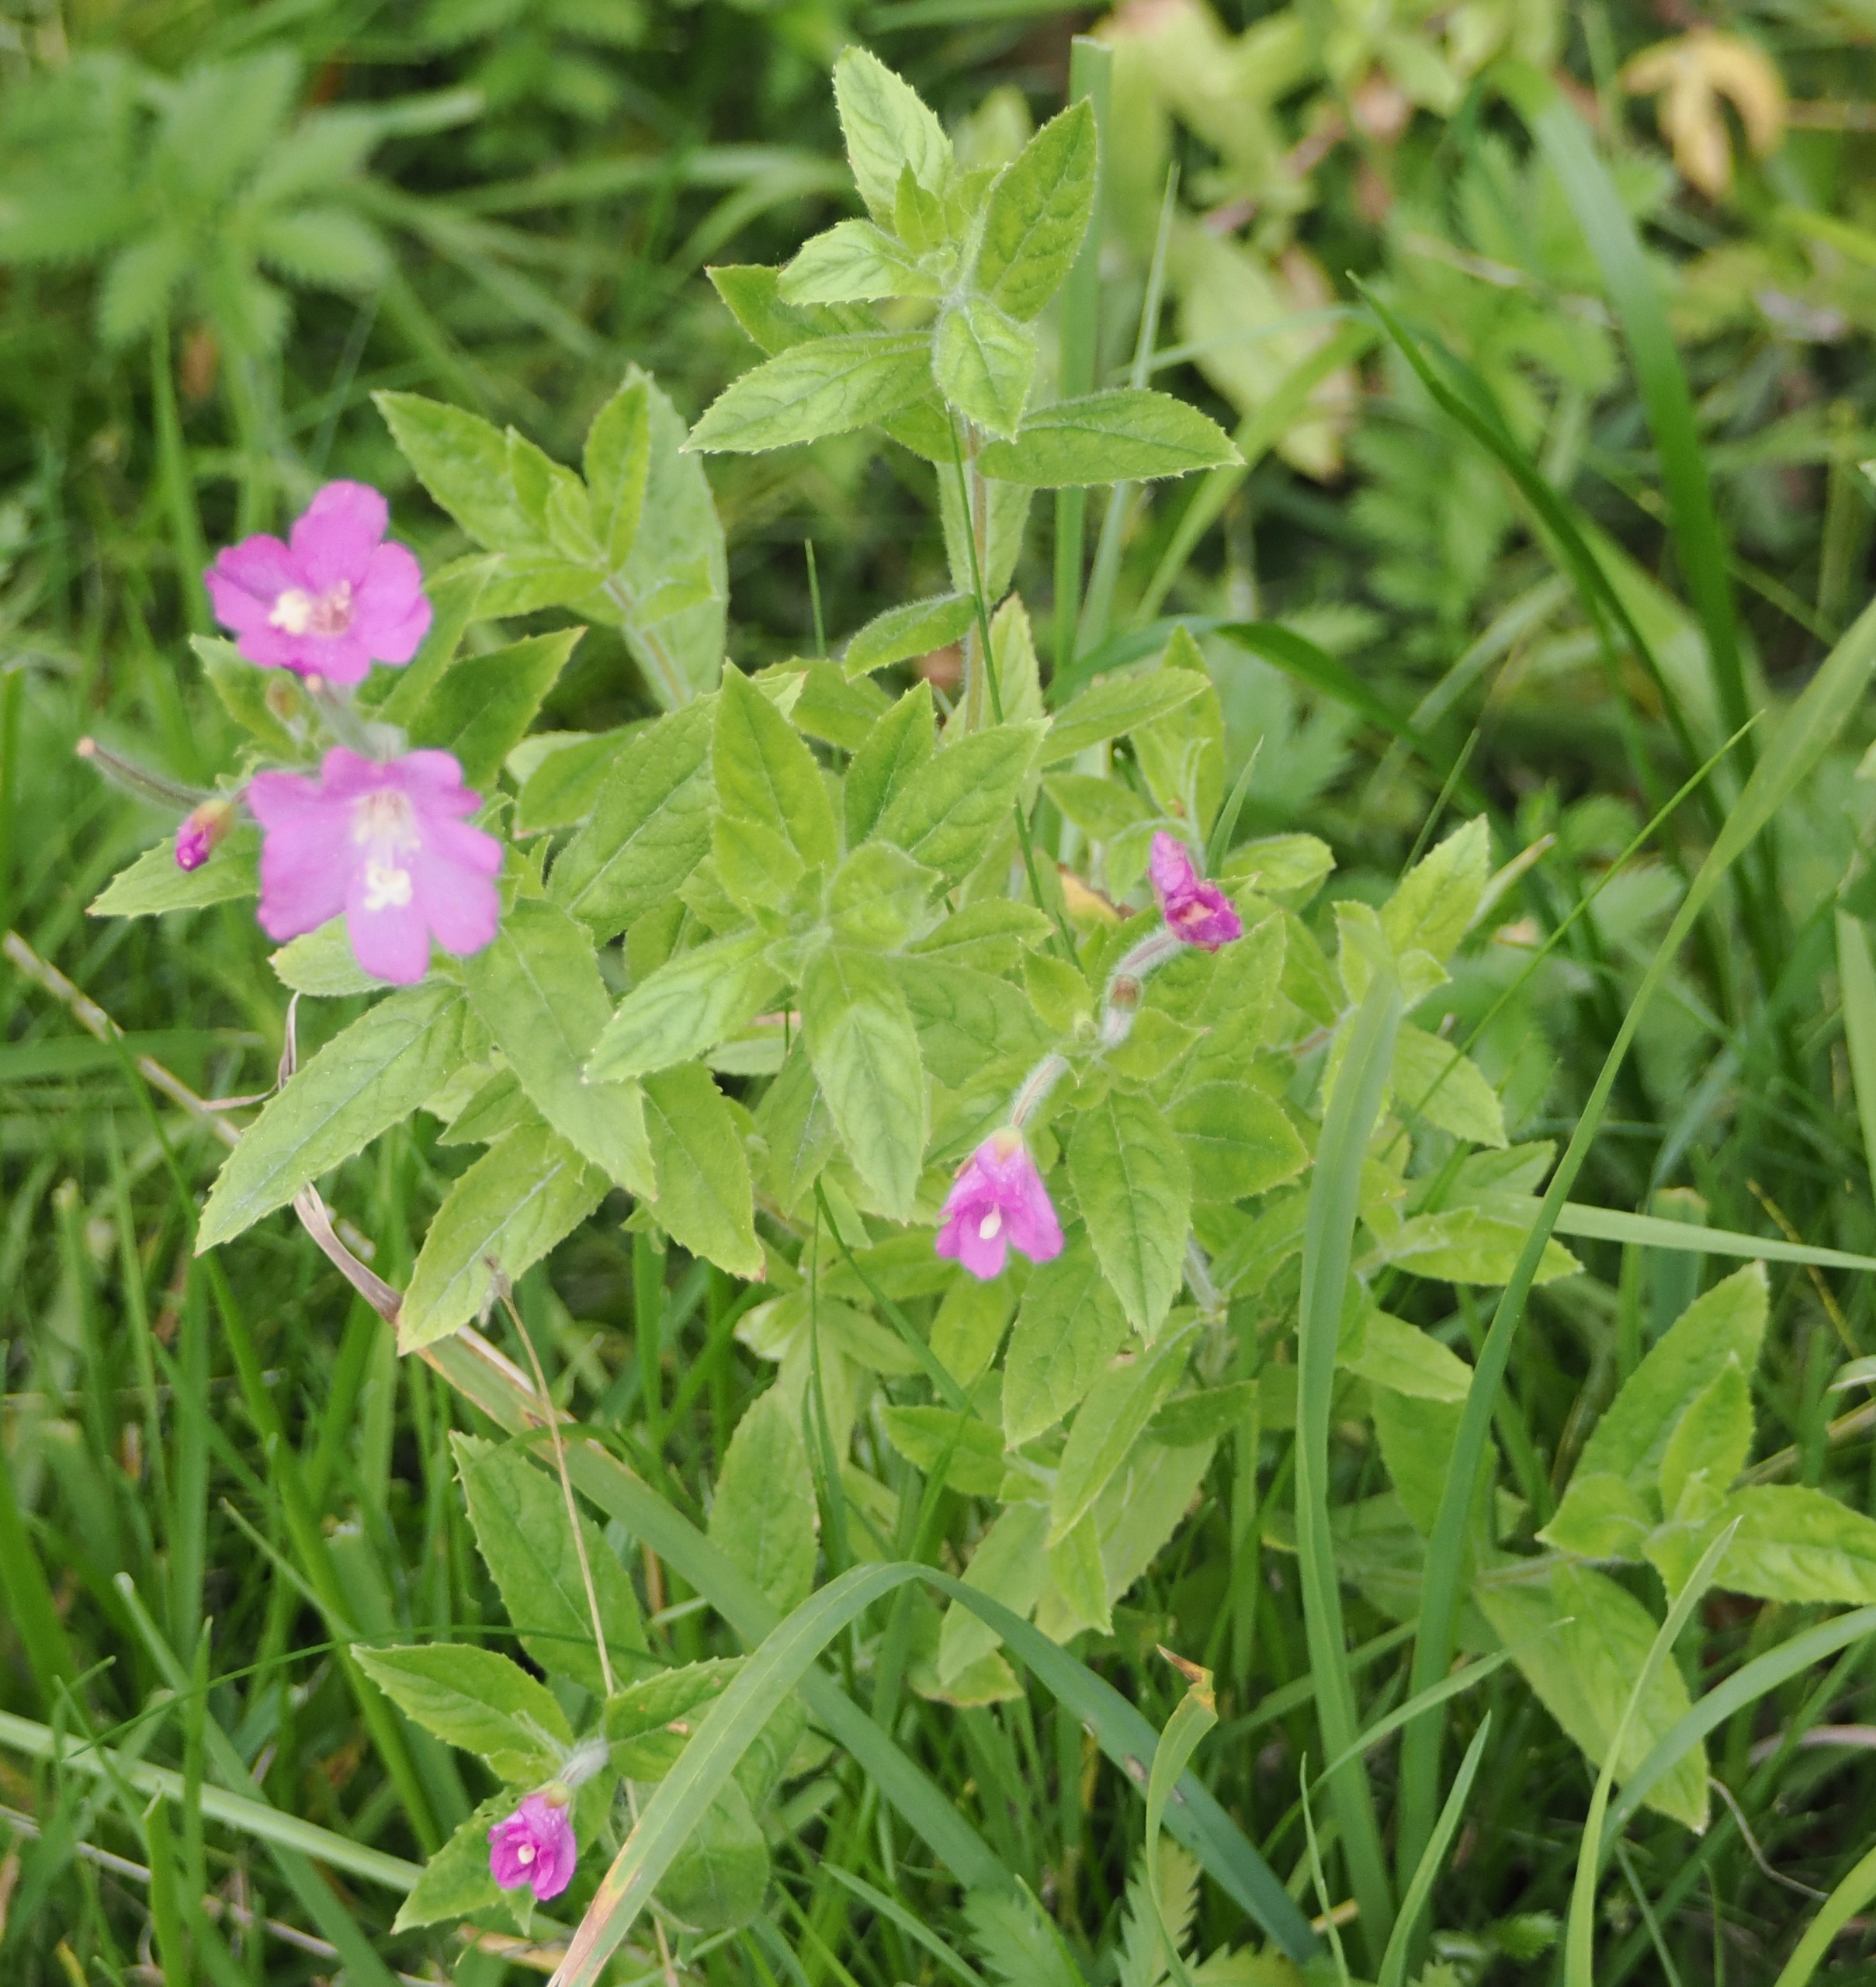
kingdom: Plantae
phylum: Tracheophyta
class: Magnoliopsida
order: Myrtales
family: Onagraceae
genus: Epilobium
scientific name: Epilobium hirsutum
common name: Lådden dueurt
